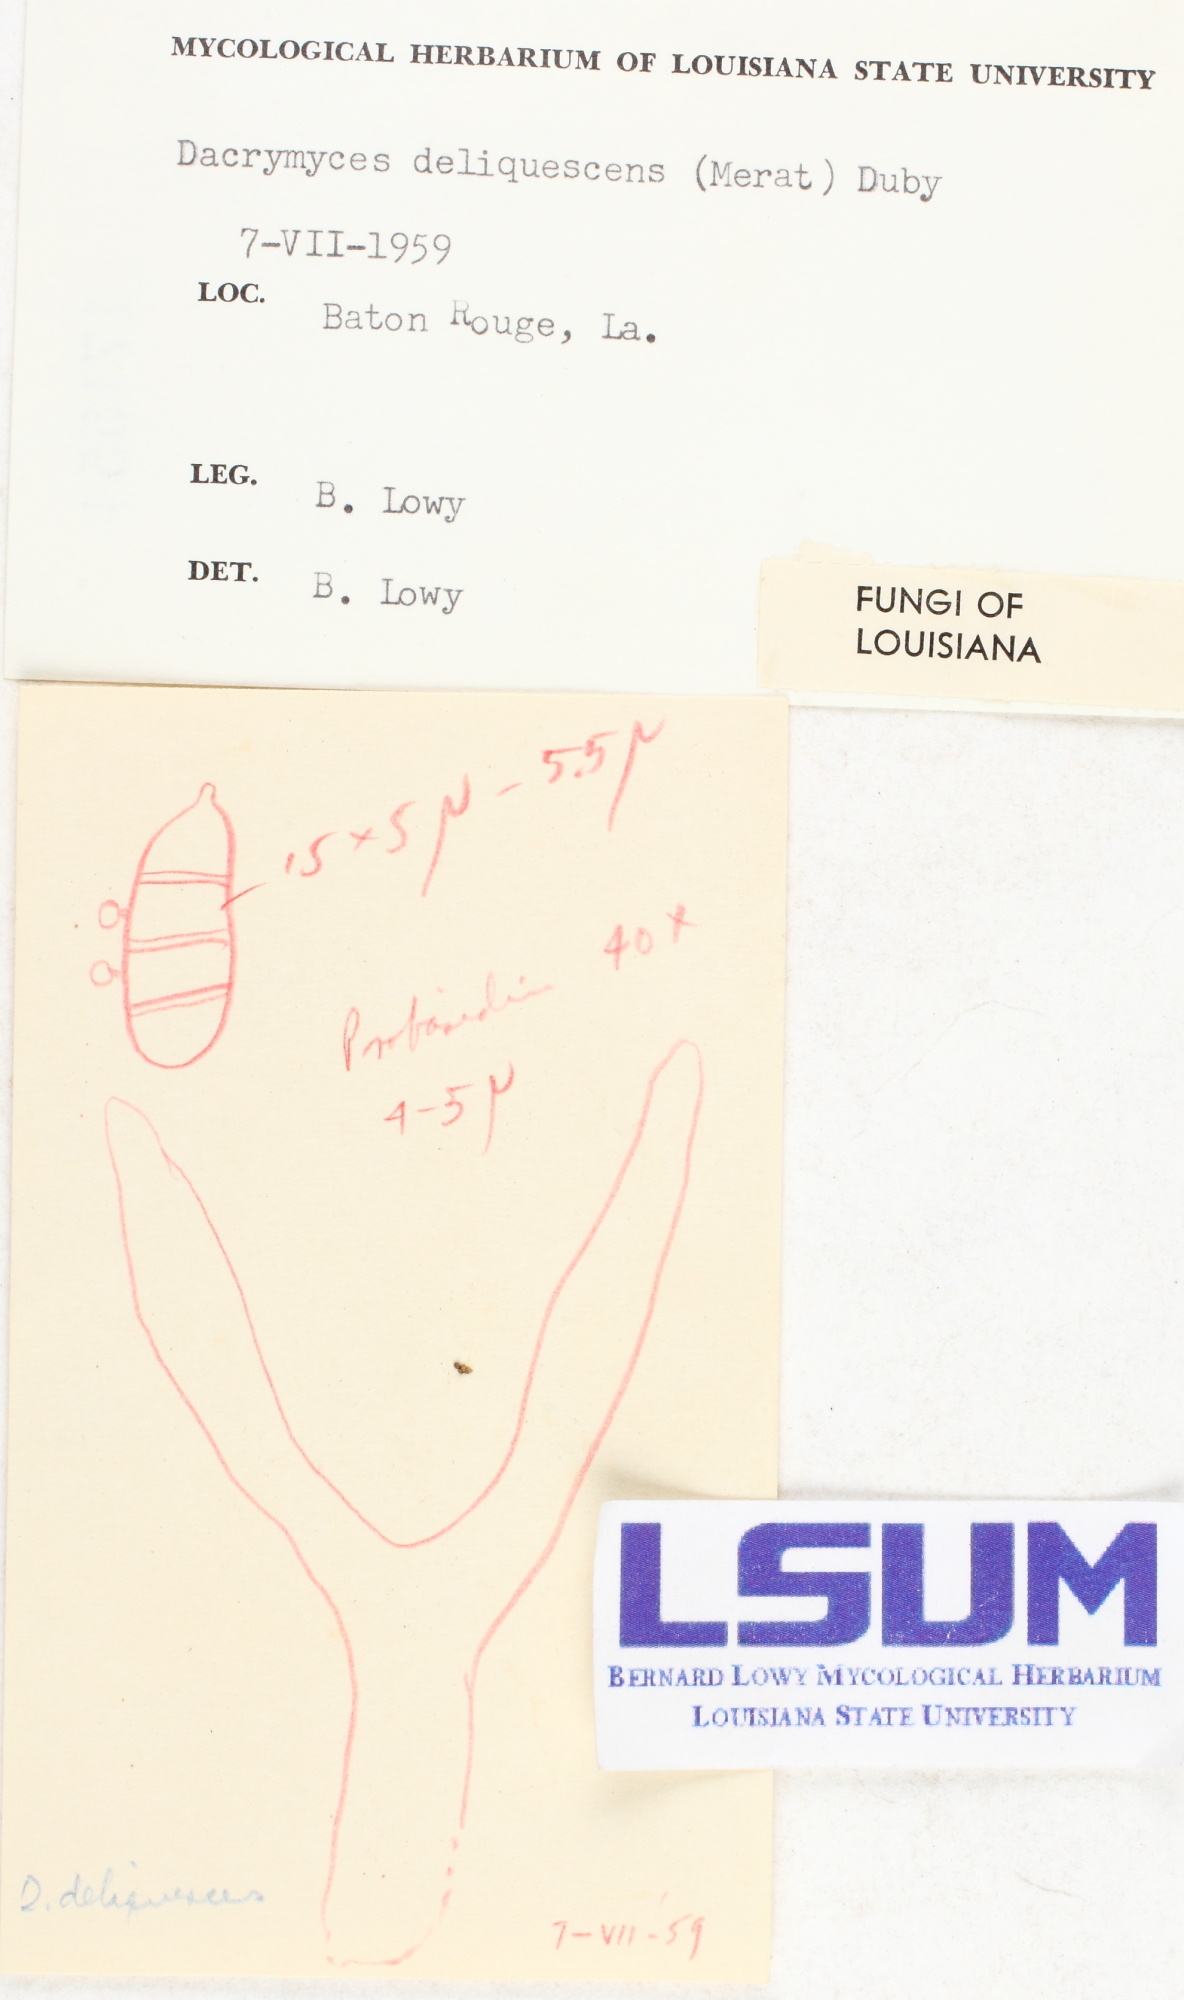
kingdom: Fungi
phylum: Basidiomycota
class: Dacrymycetes
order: Dacrymycetales
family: Dacrymycetaceae
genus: Dacrymyces
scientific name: Dacrymyces stillatus
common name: Common jelly spot
